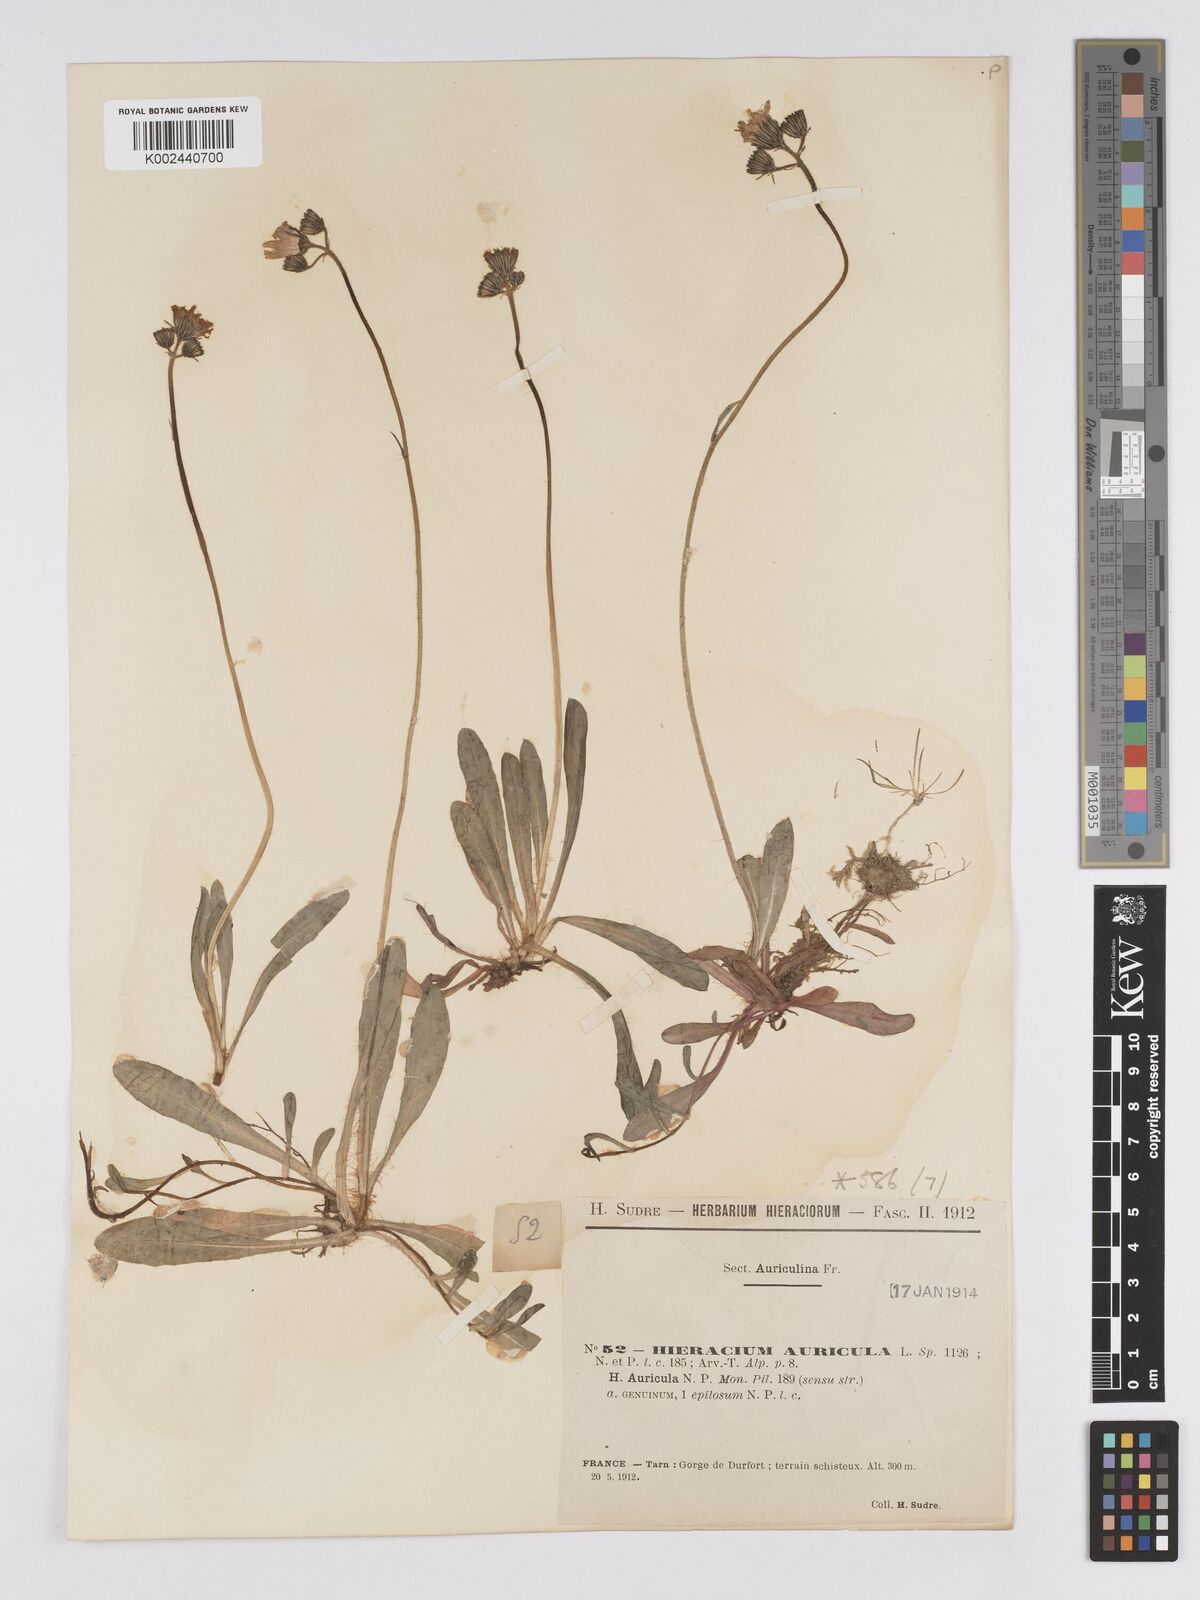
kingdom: Plantae
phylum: Tracheophyta
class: Magnoliopsida
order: Asterales
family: Asteraceae
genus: Pilosella
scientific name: Pilosella floribunda
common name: Glaucous hawkweed
